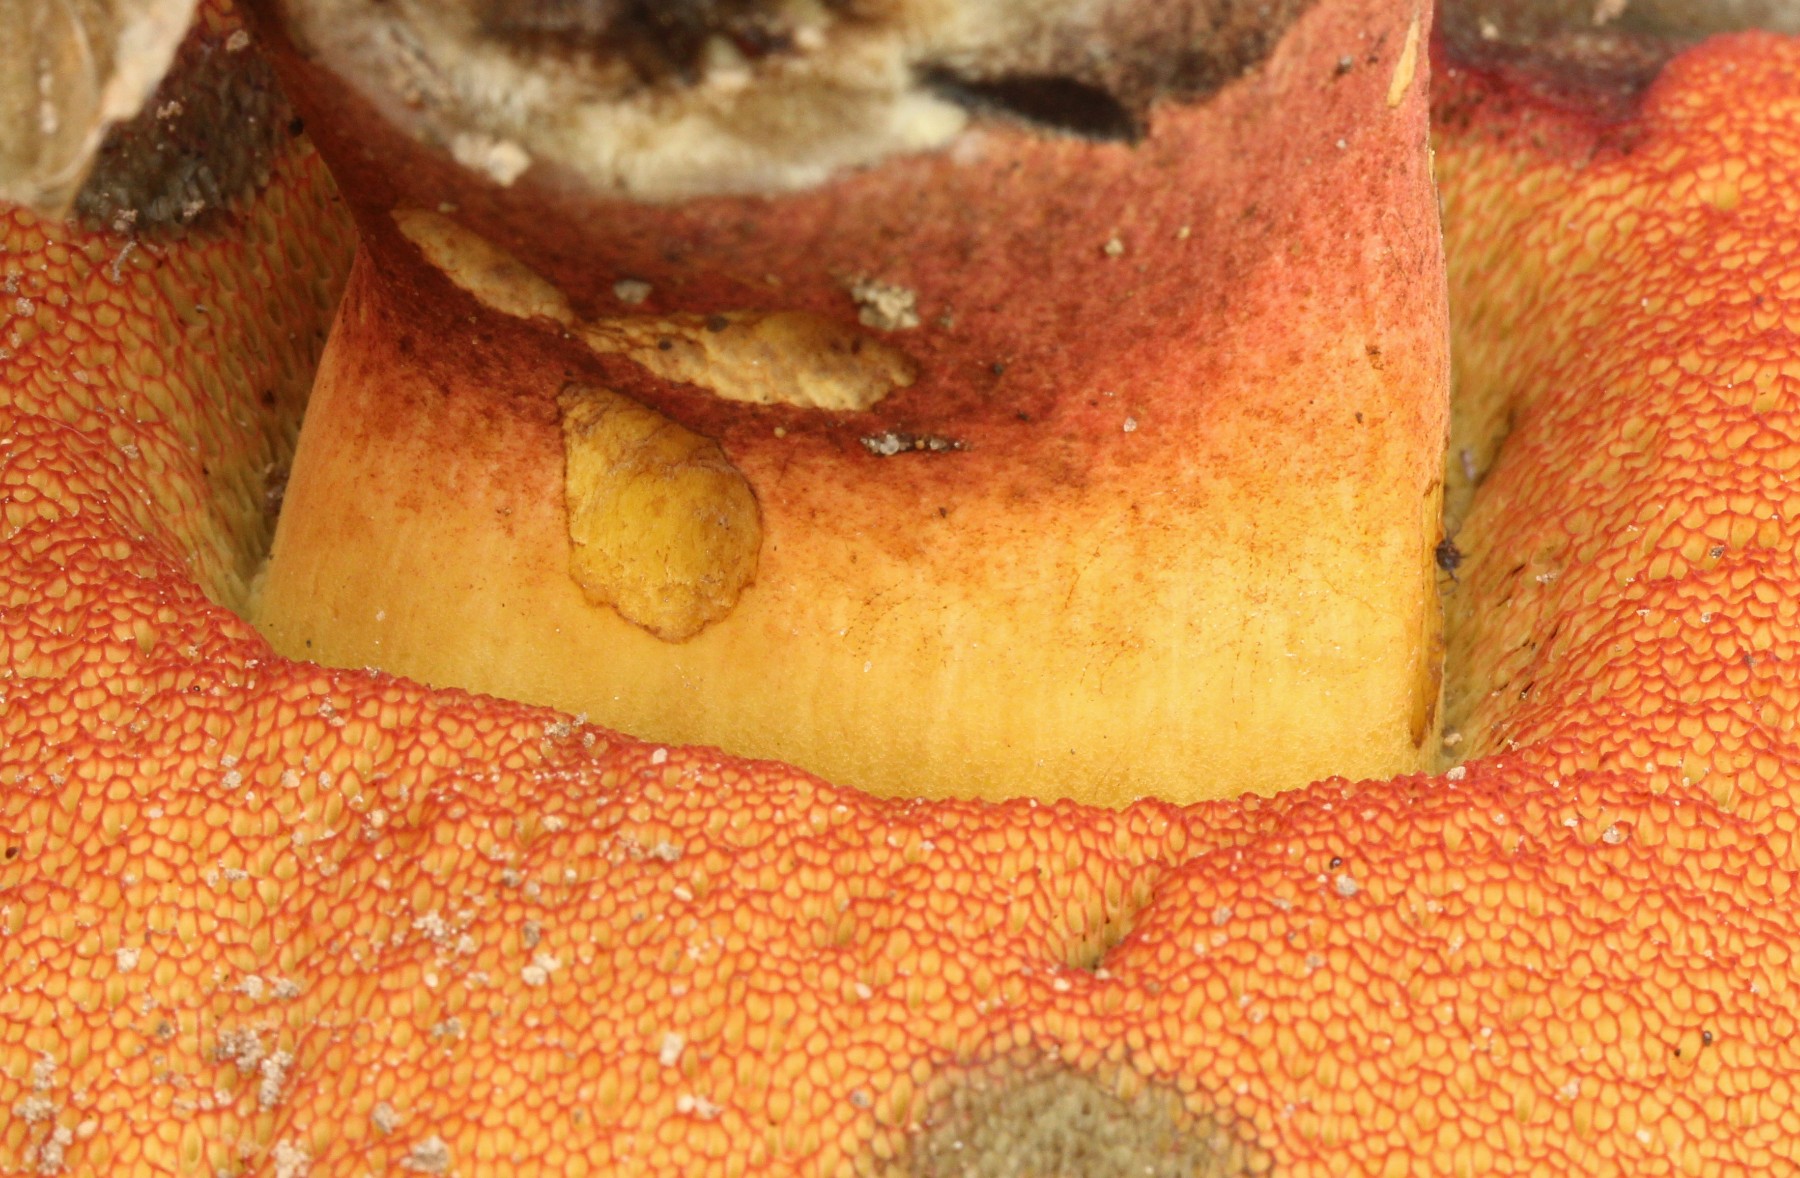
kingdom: Fungi
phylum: Basidiomycota
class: Agaricomycetes
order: Boletales
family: Boletaceae
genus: Neoboletus
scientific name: Neoboletus xanthopus
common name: finprikket indigorørhat
